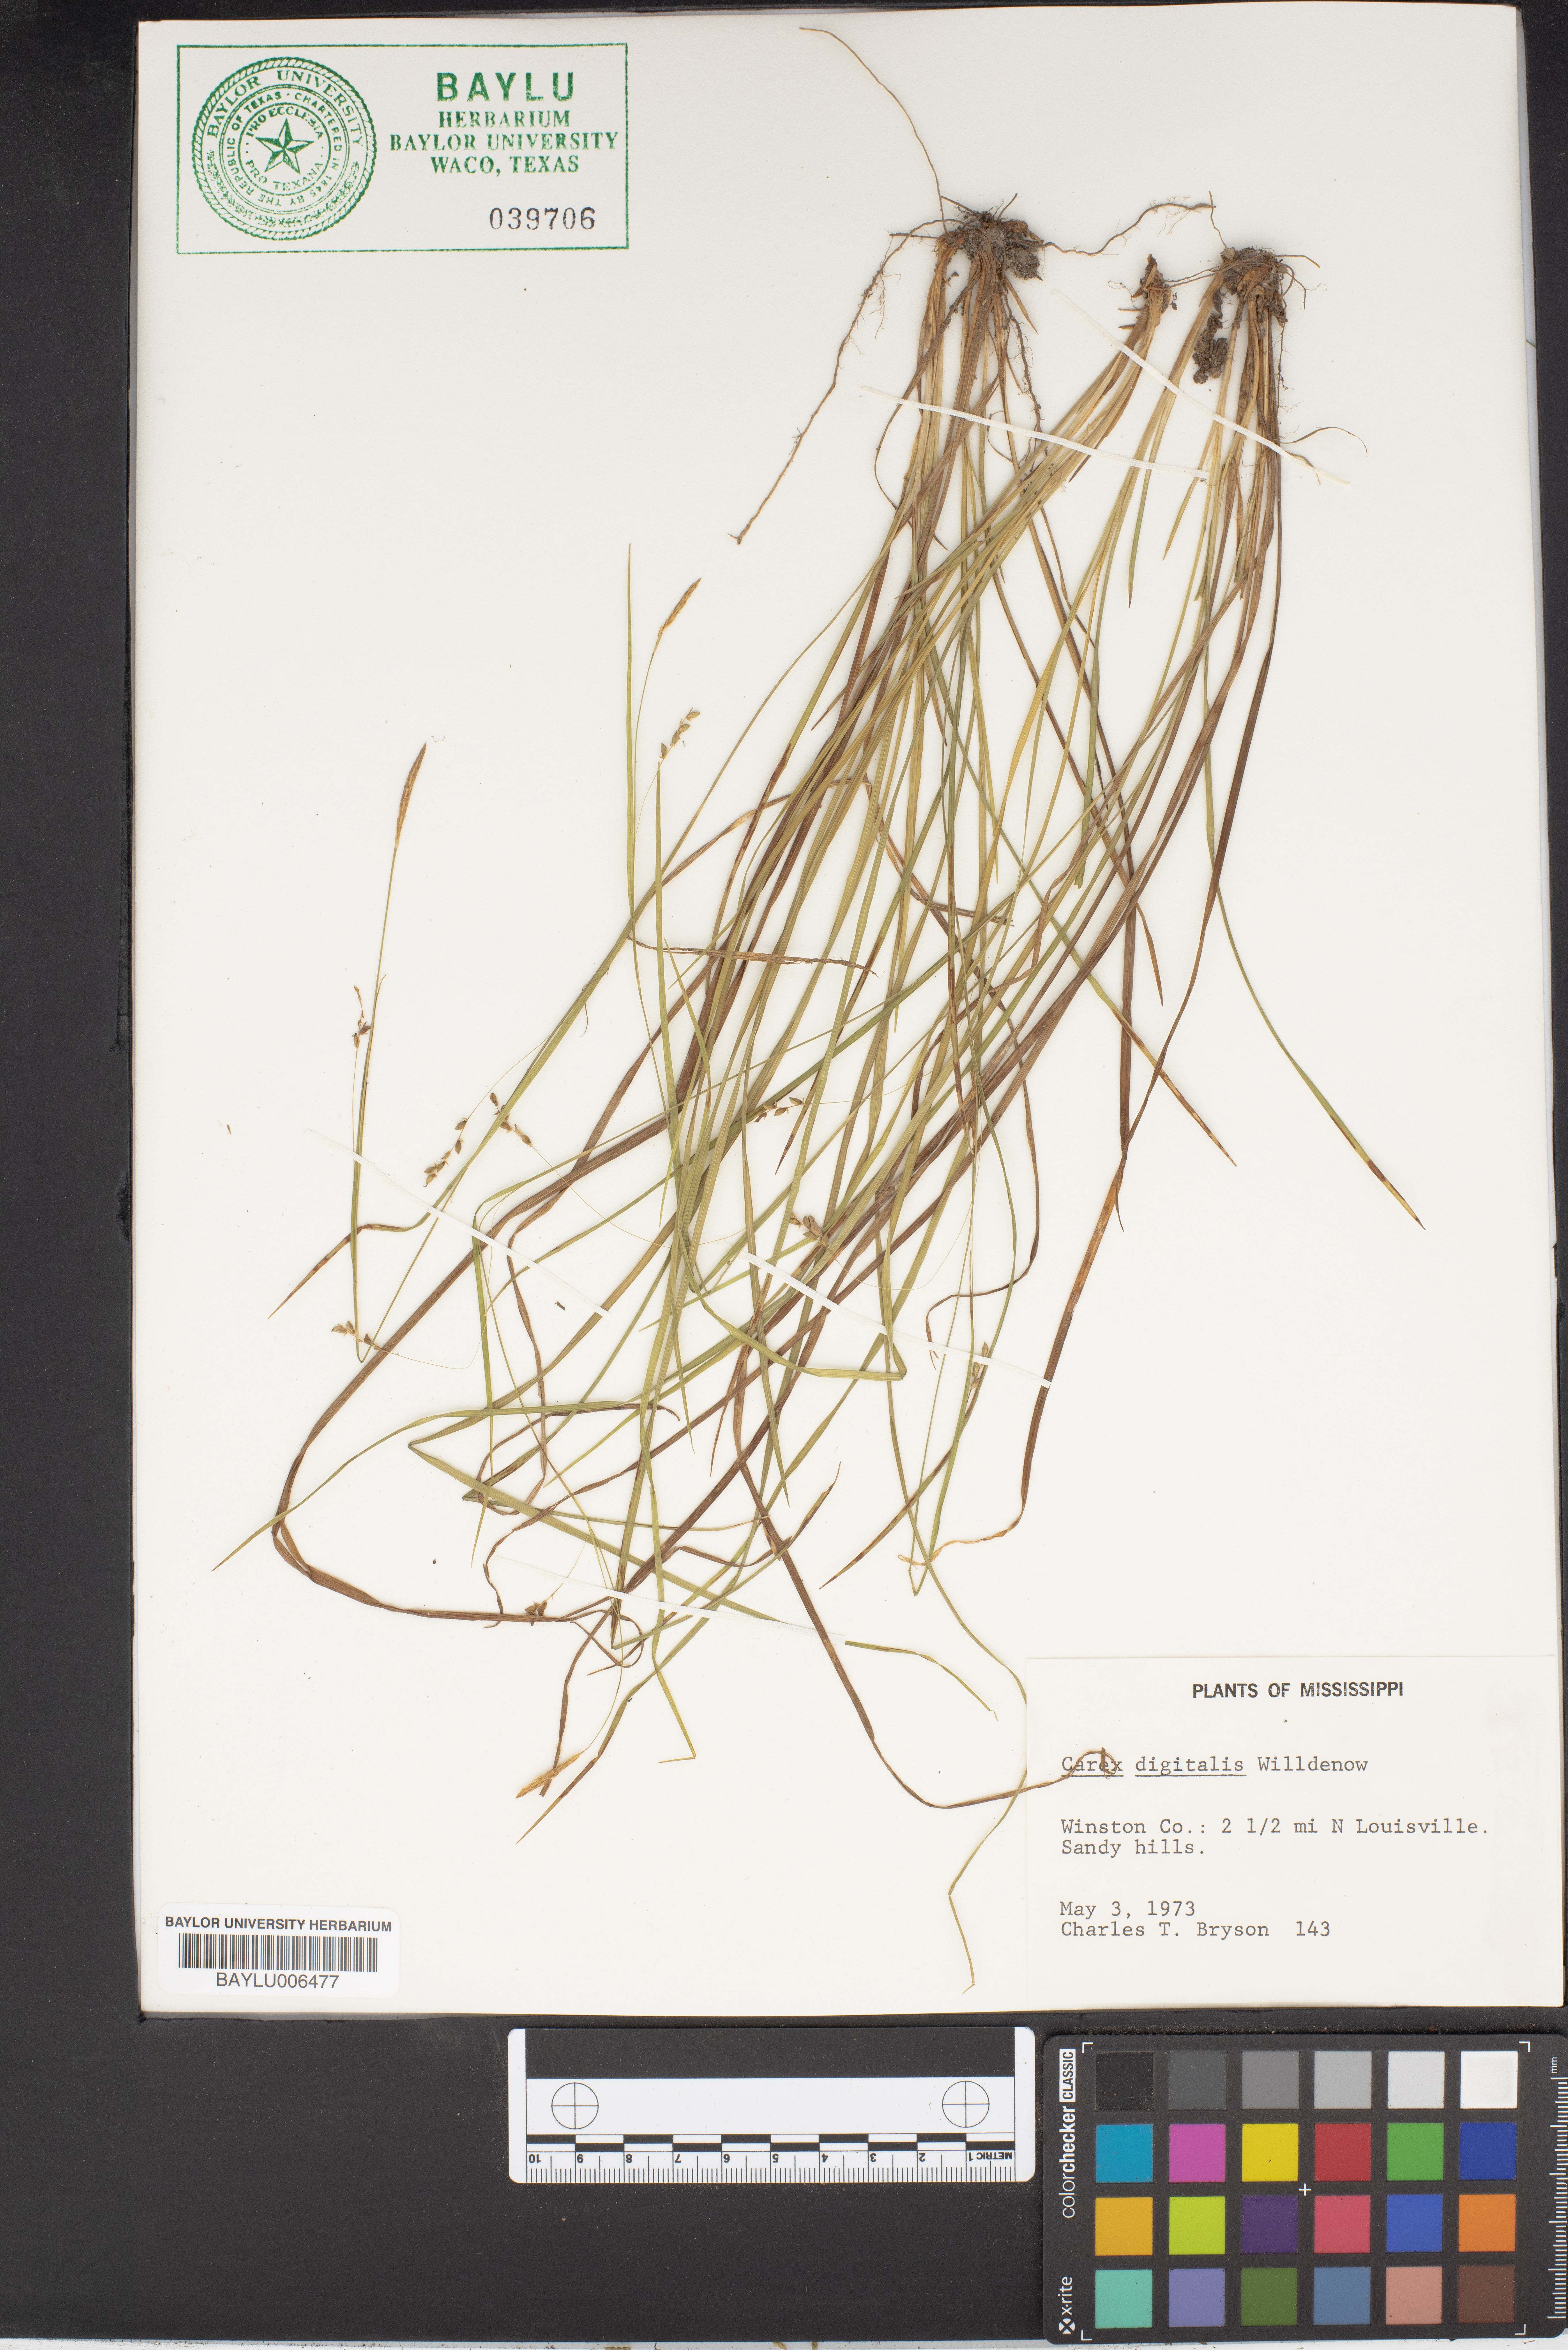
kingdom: Plantae
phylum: Tracheophyta
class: Liliopsida
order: Poales
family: Cyperaceae
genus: Carex
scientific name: Carex digitalis
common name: Slender wood sedge
